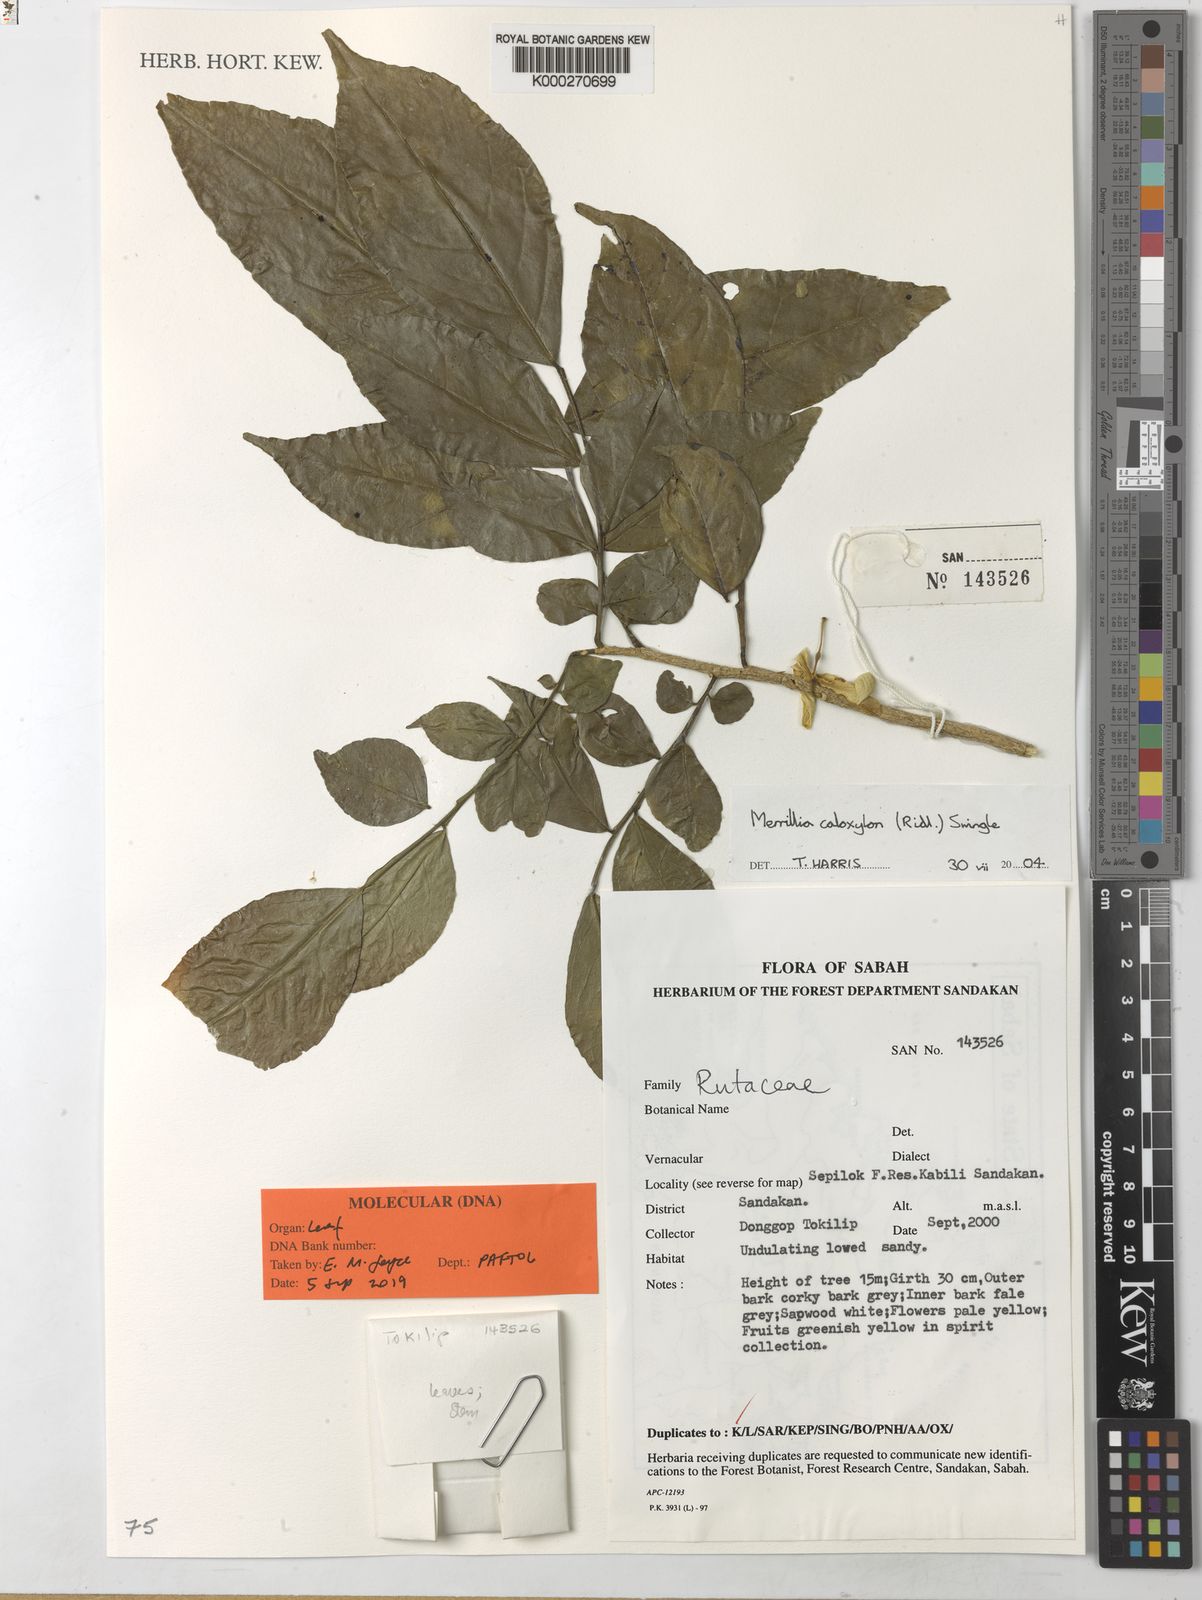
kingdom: Plantae
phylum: Tracheophyta
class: Magnoliopsida
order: Sapindales
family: Rutaceae
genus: Merrillia
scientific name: Merrillia caloxylon
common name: Katinga
